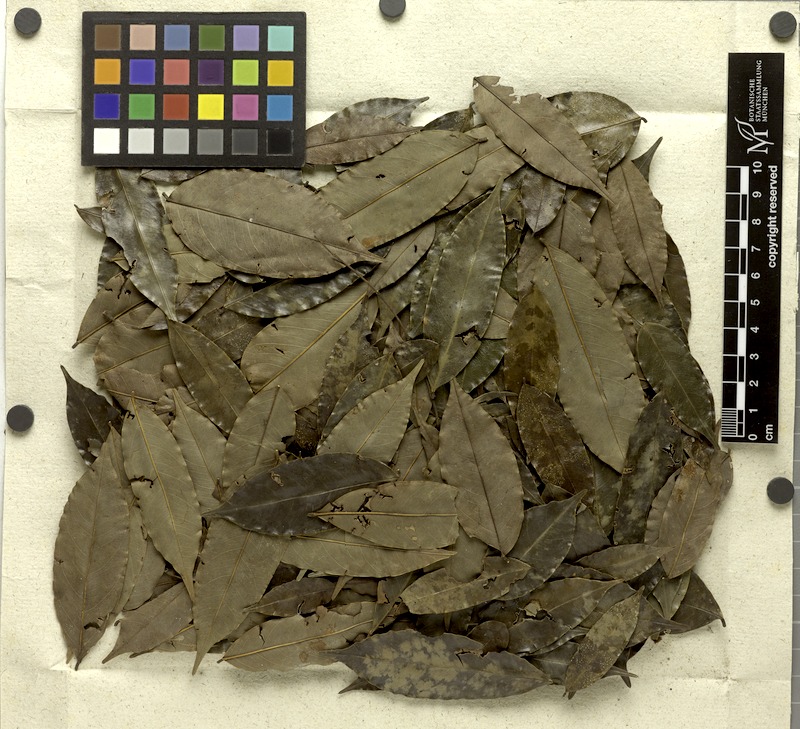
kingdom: Plantae
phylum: Tracheophyta
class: Magnoliopsida
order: Fabales
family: Fabaceae
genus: Swartzia
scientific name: Swartzia foliolosa
